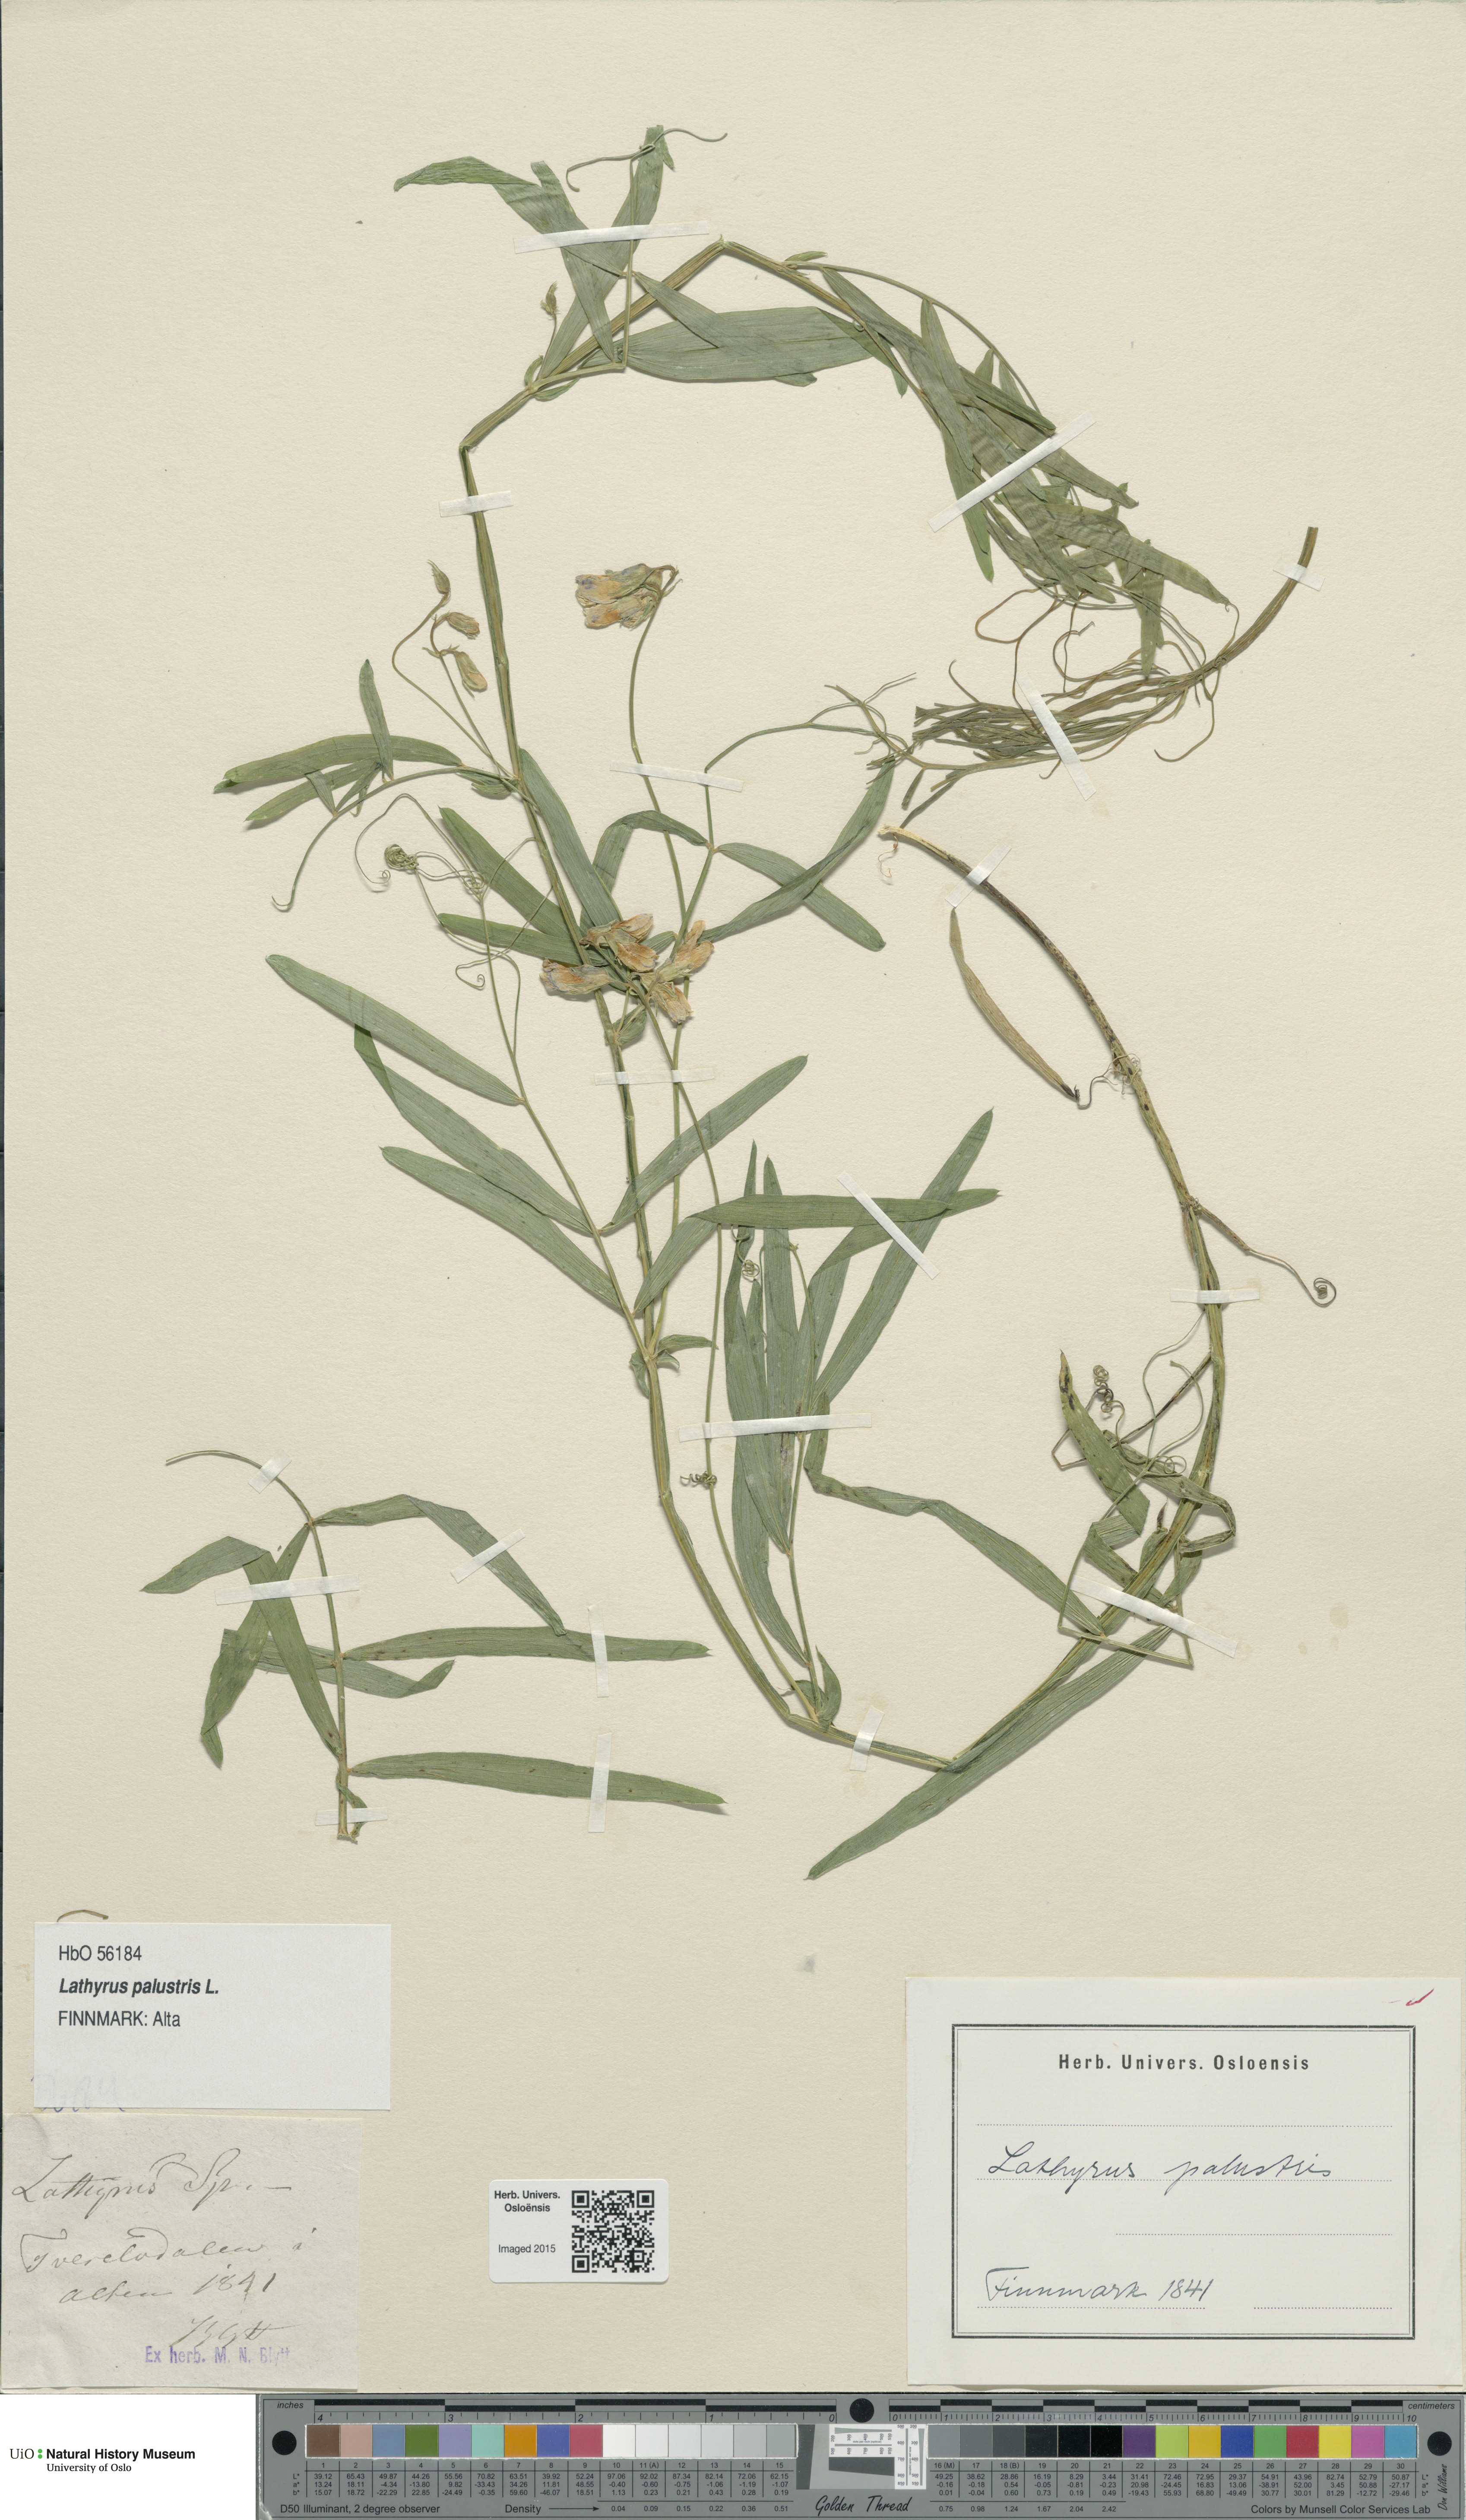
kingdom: Plantae
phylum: Tracheophyta
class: Magnoliopsida
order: Fabales
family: Fabaceae
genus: Lathyrus
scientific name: Lathyrus palustris
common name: Marsh pea
